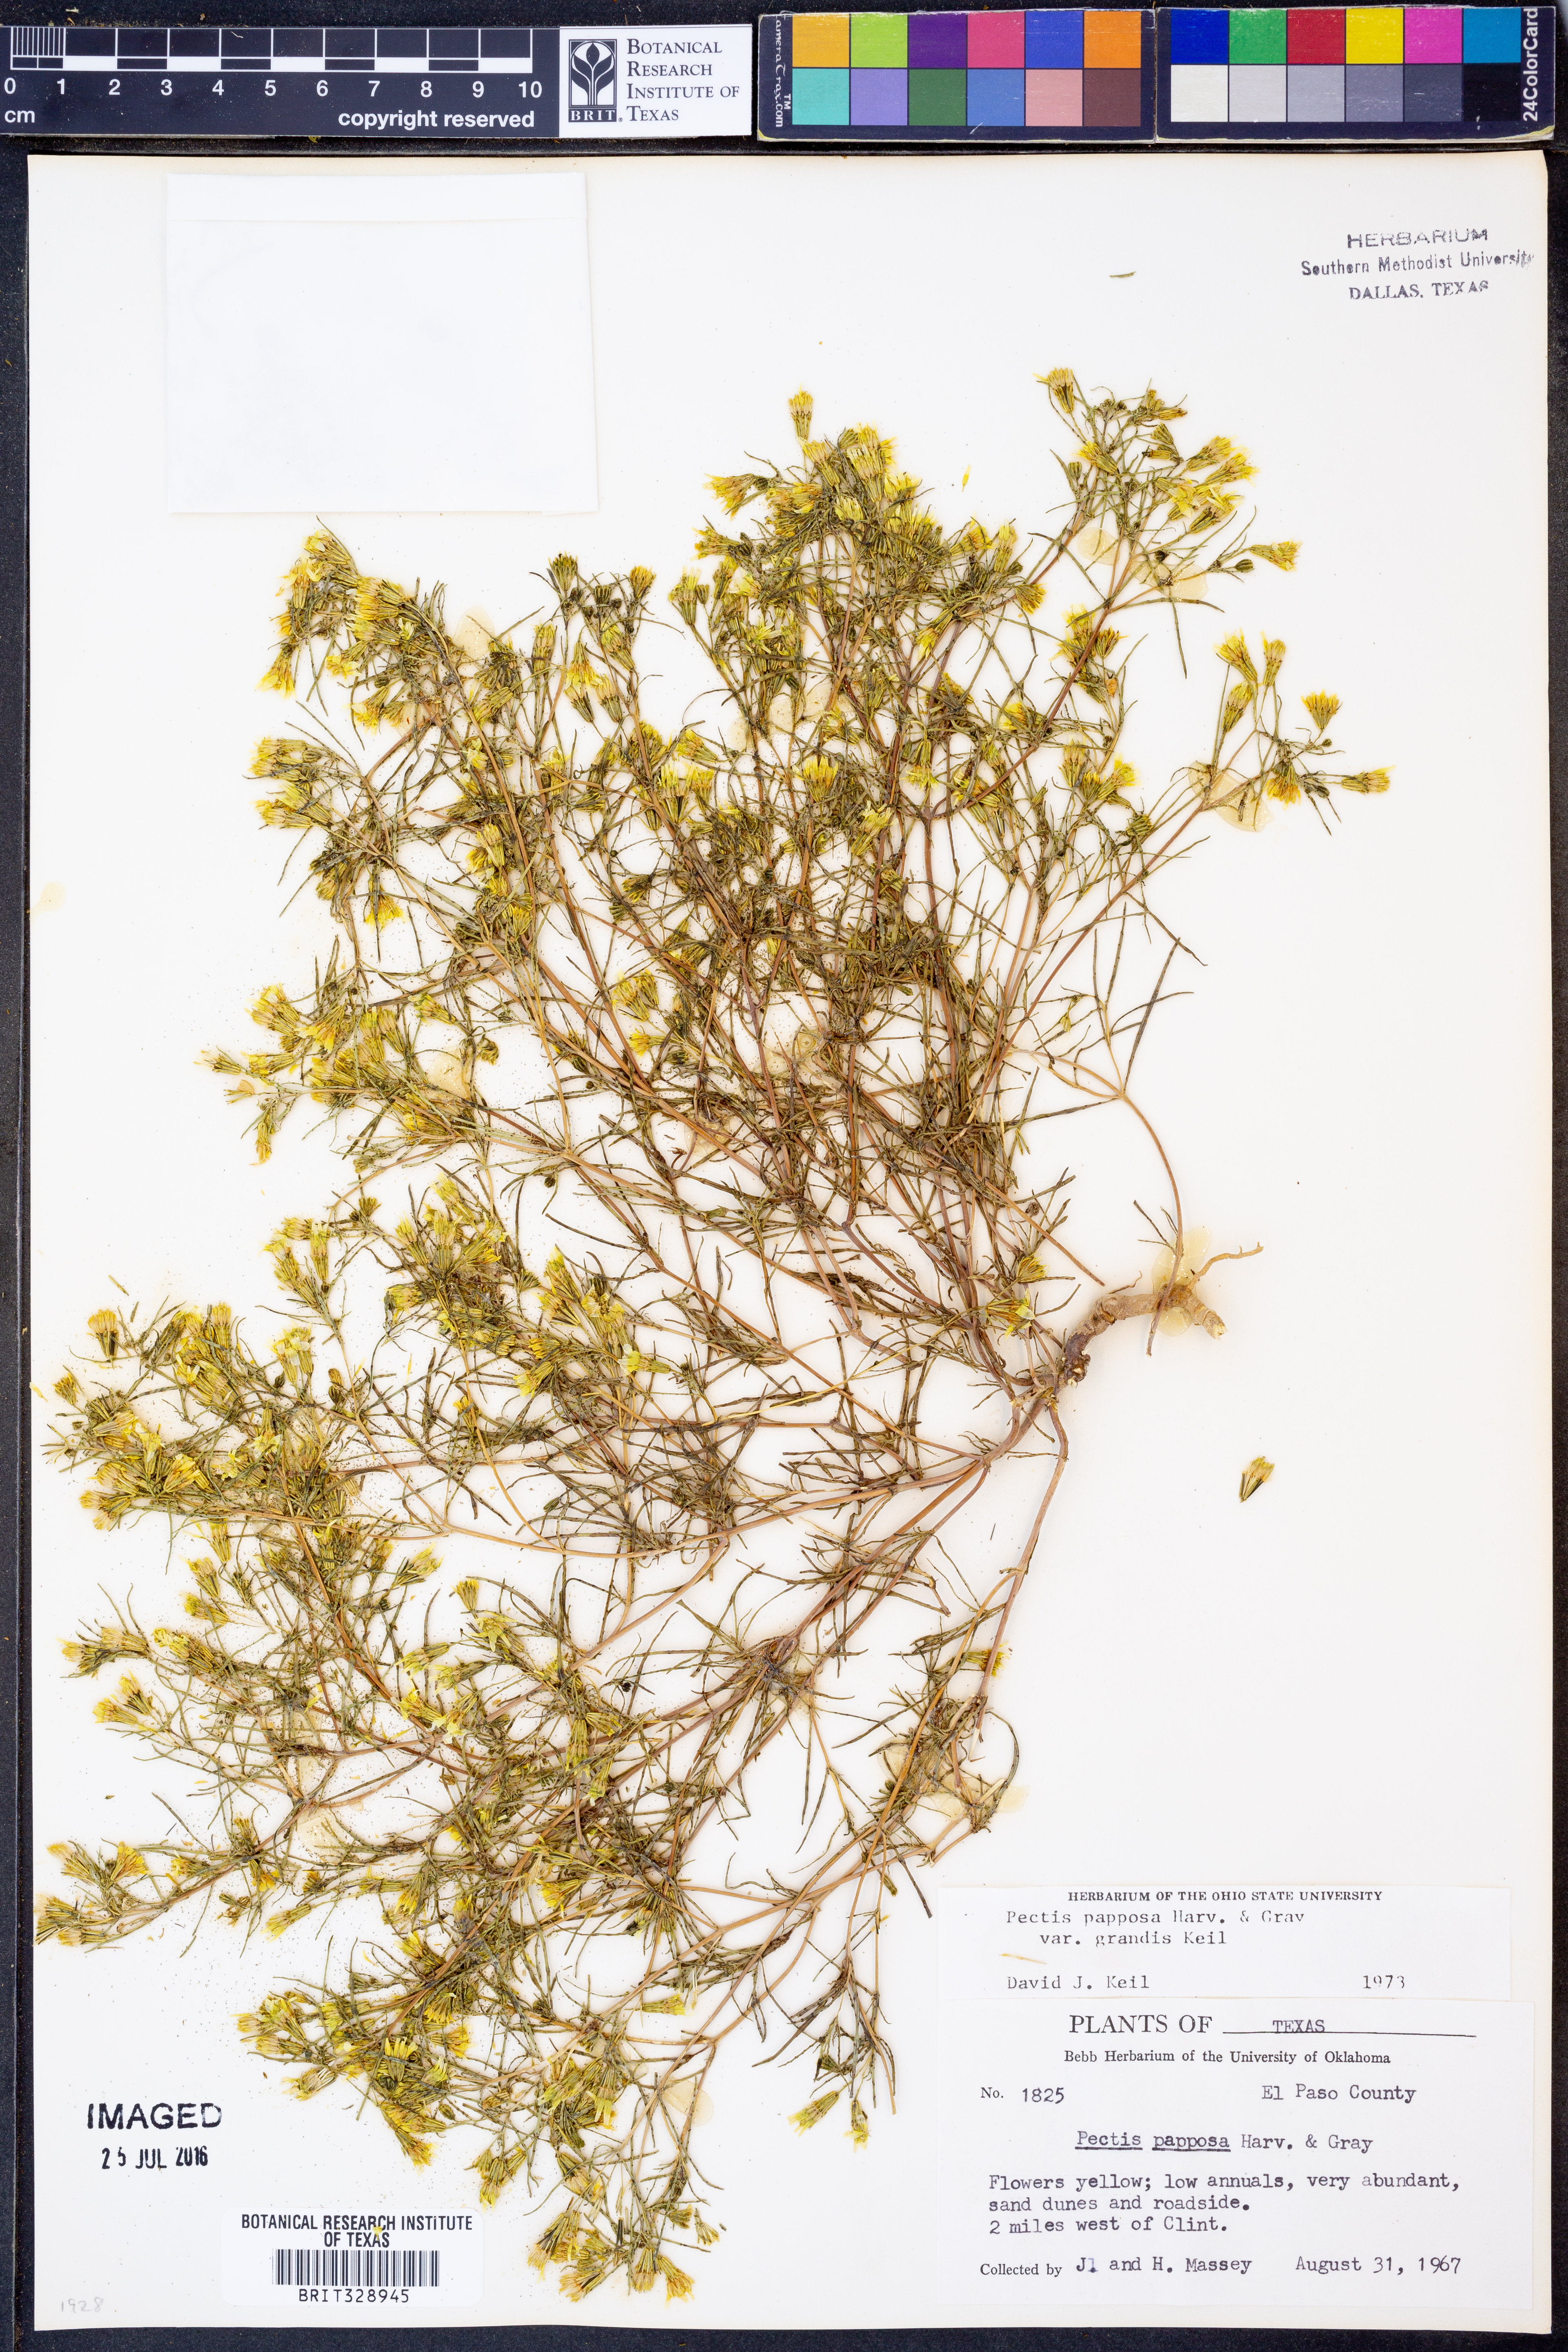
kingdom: Plantae
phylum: Tracheophyta
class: Magnoliopsida
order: Asterales
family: Asteraceae
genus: Pectis
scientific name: Pectis papposa
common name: Many-bristle chinchweed
